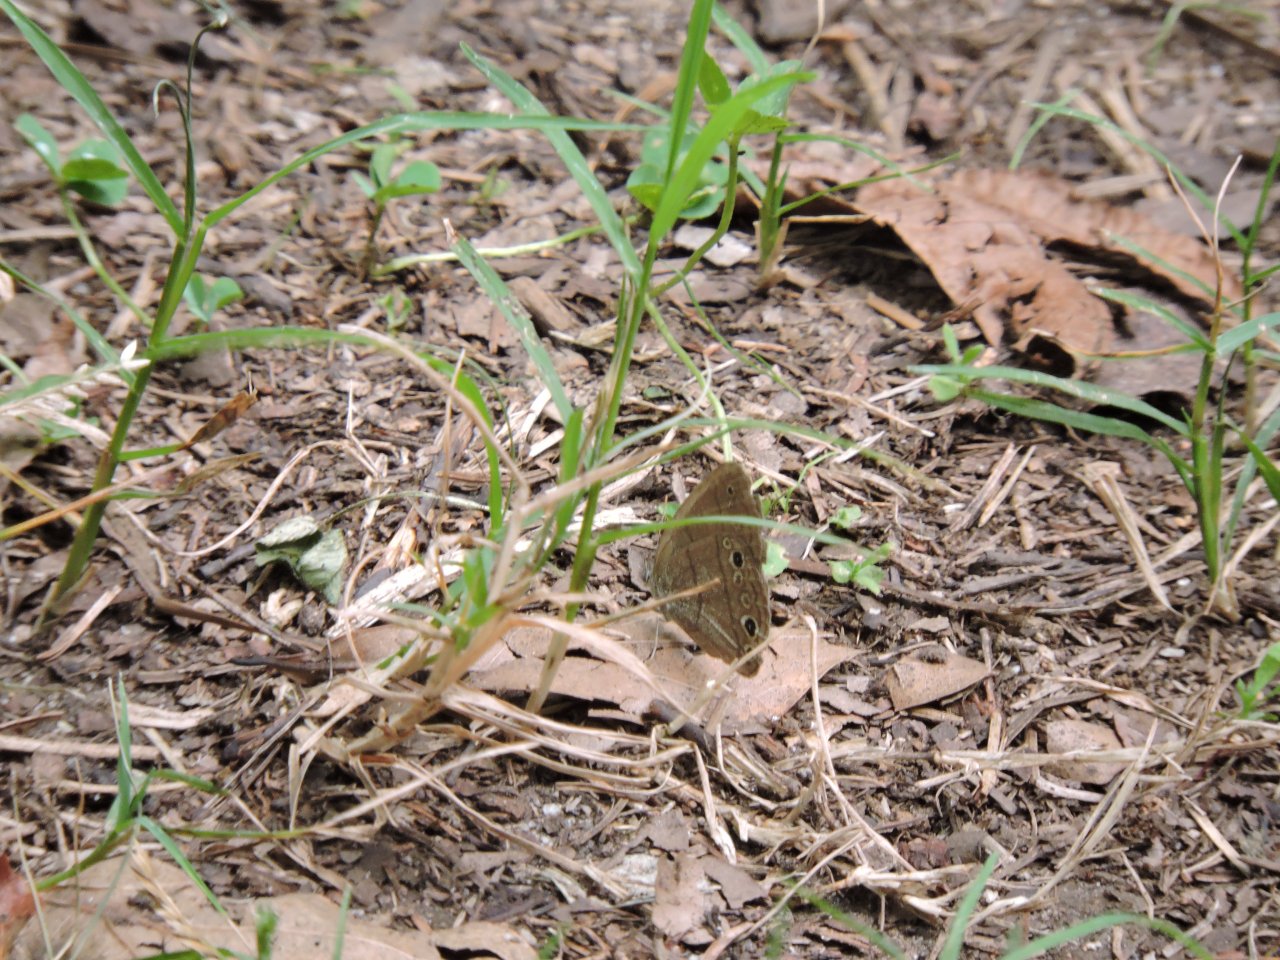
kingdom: Animalia
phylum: Arthropoda
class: Insecta
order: Lepidoptera
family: Nymphalidae
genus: Hermeuptychia
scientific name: Hermeuptychia intricata
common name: Intricate Satyr
